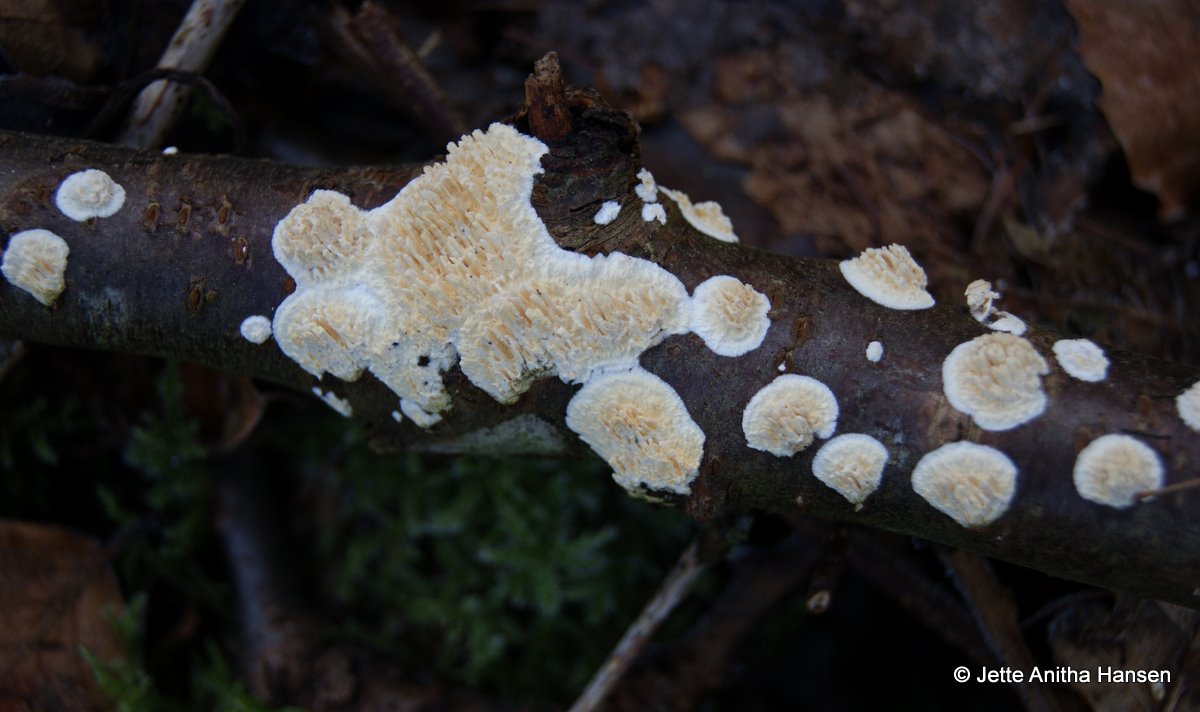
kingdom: Fungi
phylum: Basidiomycota
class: Agaricomycetes
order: Hymenochaetales
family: Schizoporaceae
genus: Xylodon
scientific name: Xylodon radula
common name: grovtandet kalkskind
